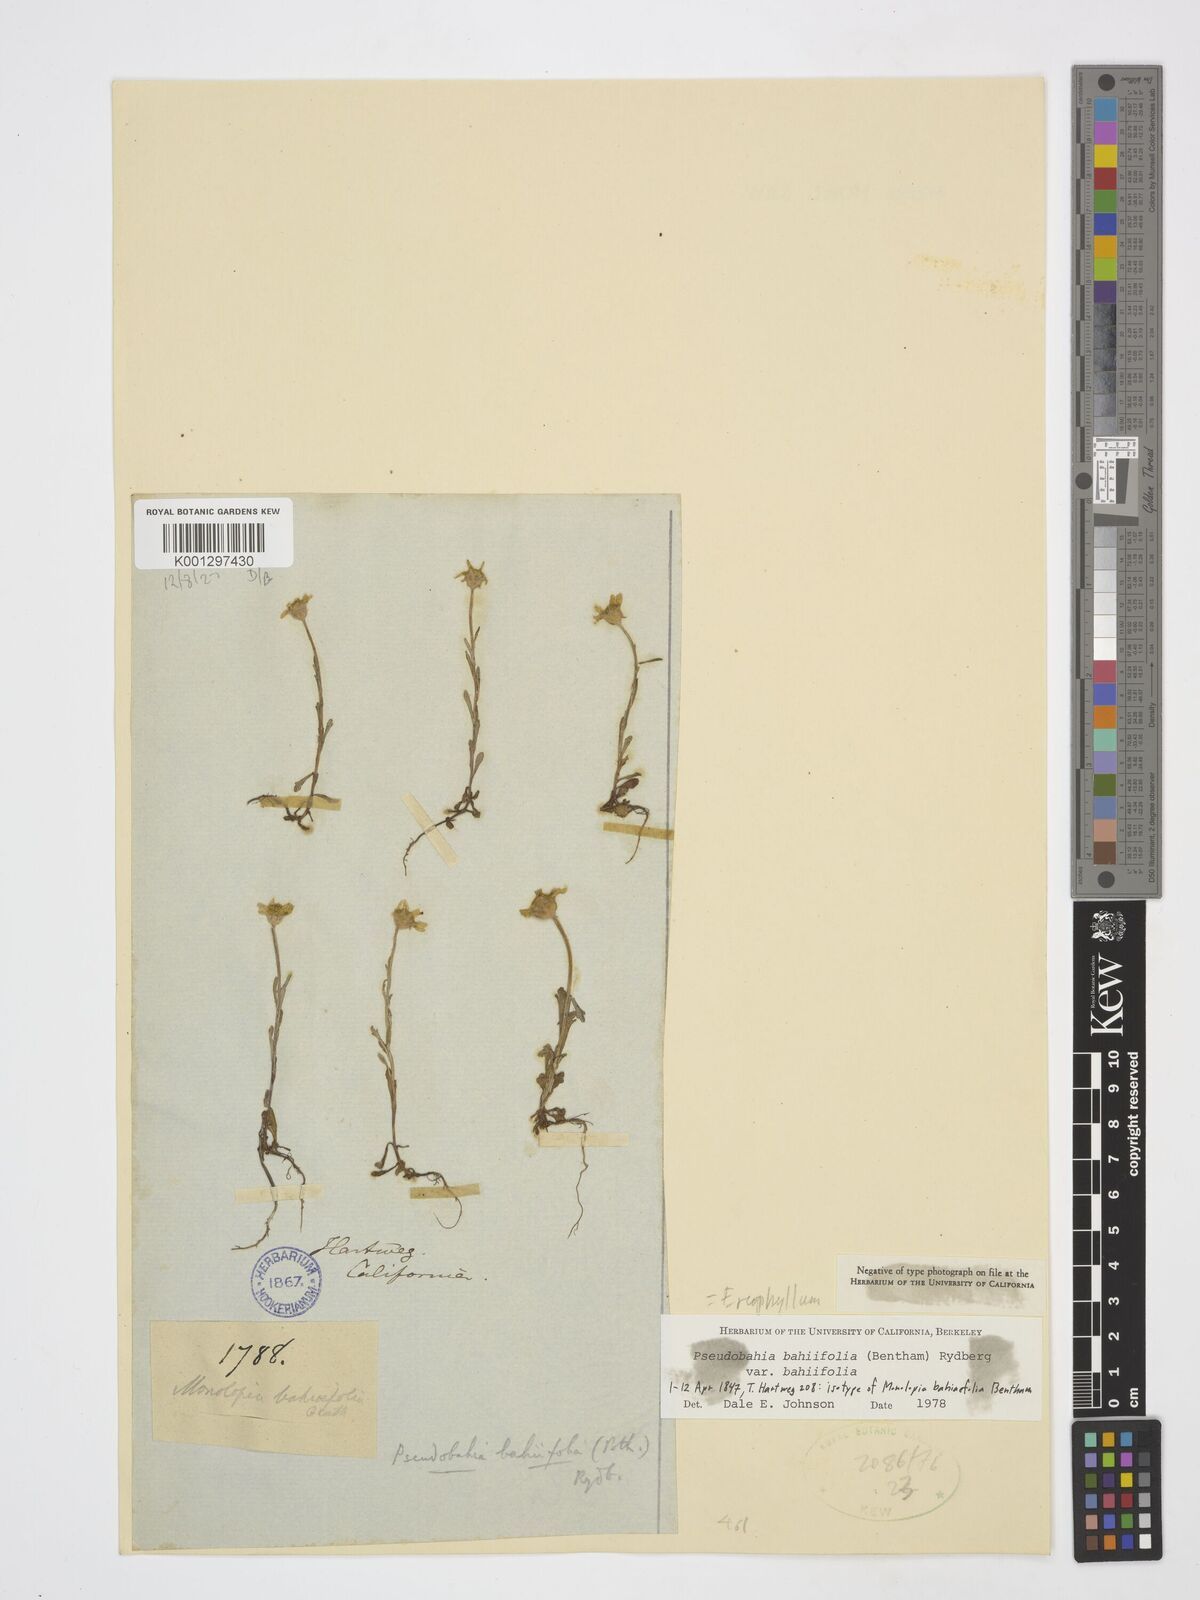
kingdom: Plantae
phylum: Tracheophyta
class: Magnoliopsida
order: Asterales
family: Asteraceae
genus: Pseudobahia
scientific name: Pseudobahia bahiifolia
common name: Hartweg's golden sunburst
